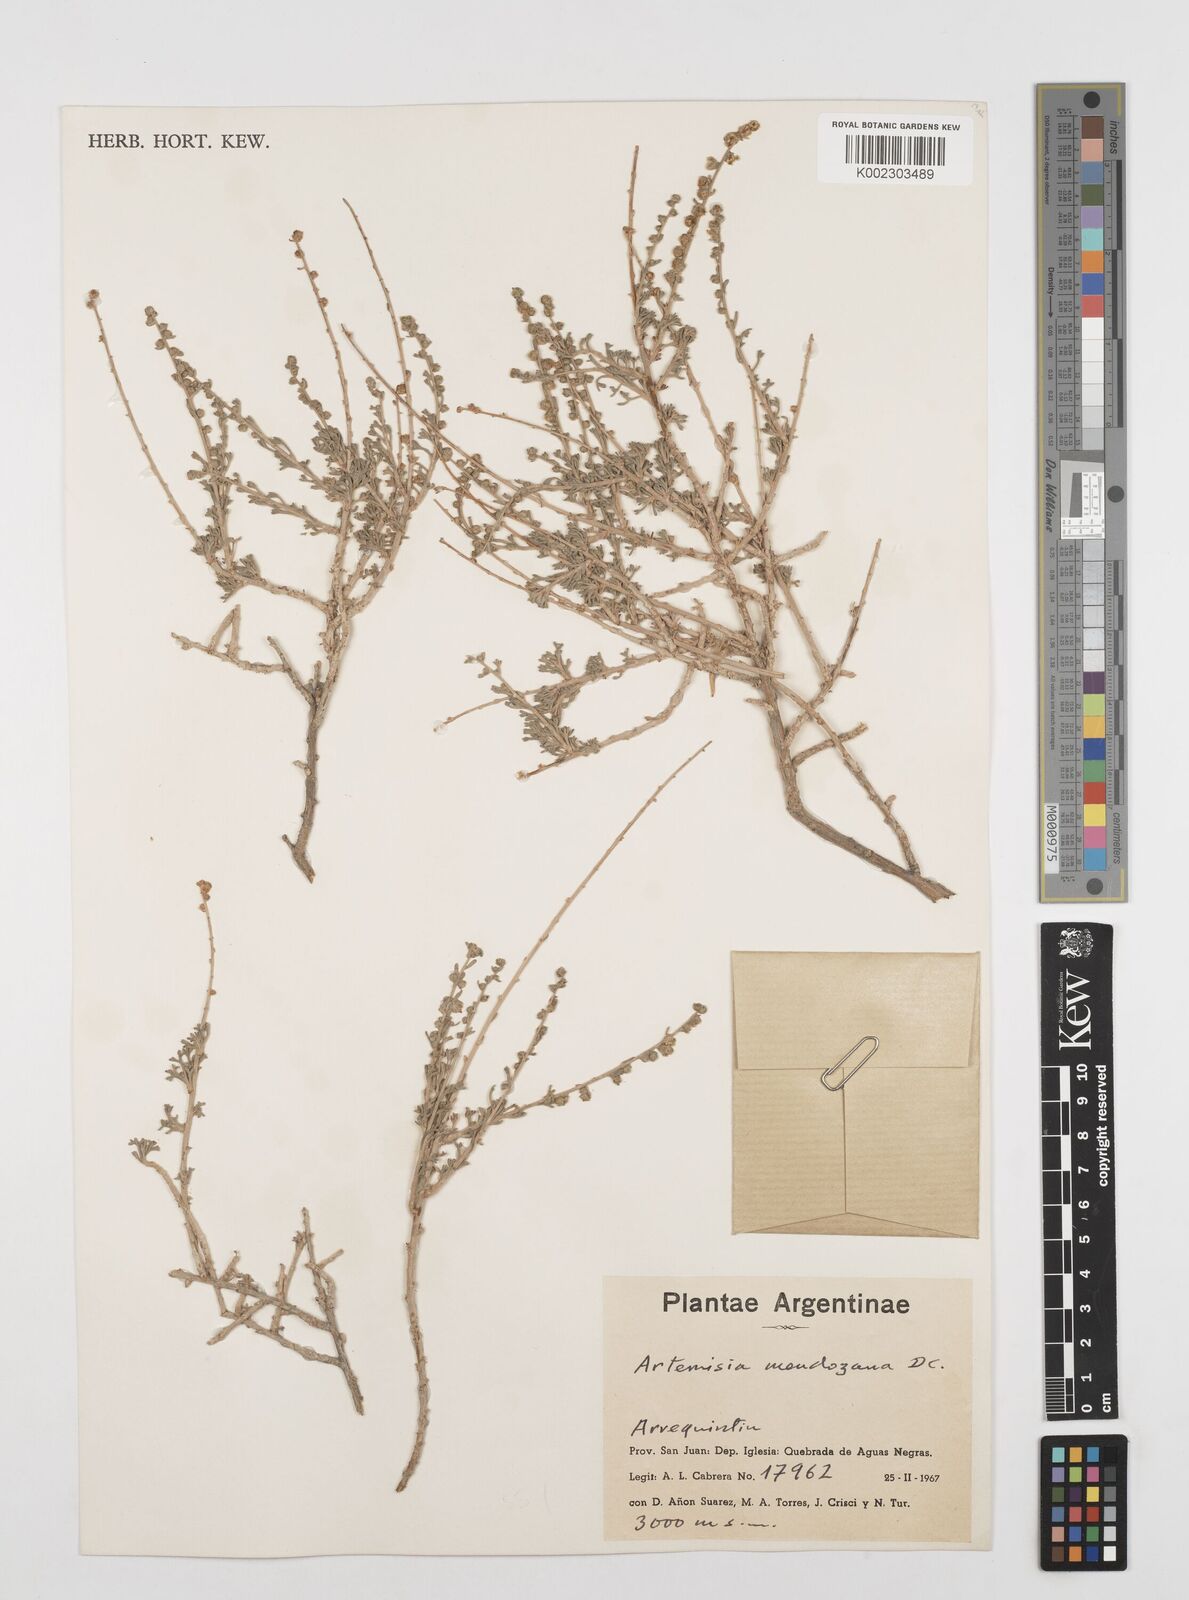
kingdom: Plantae
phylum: Tracheophyta
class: Magnoliopsida
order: Asterales
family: Asteraceae
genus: Artemisia
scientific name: Artemisia mendozana
